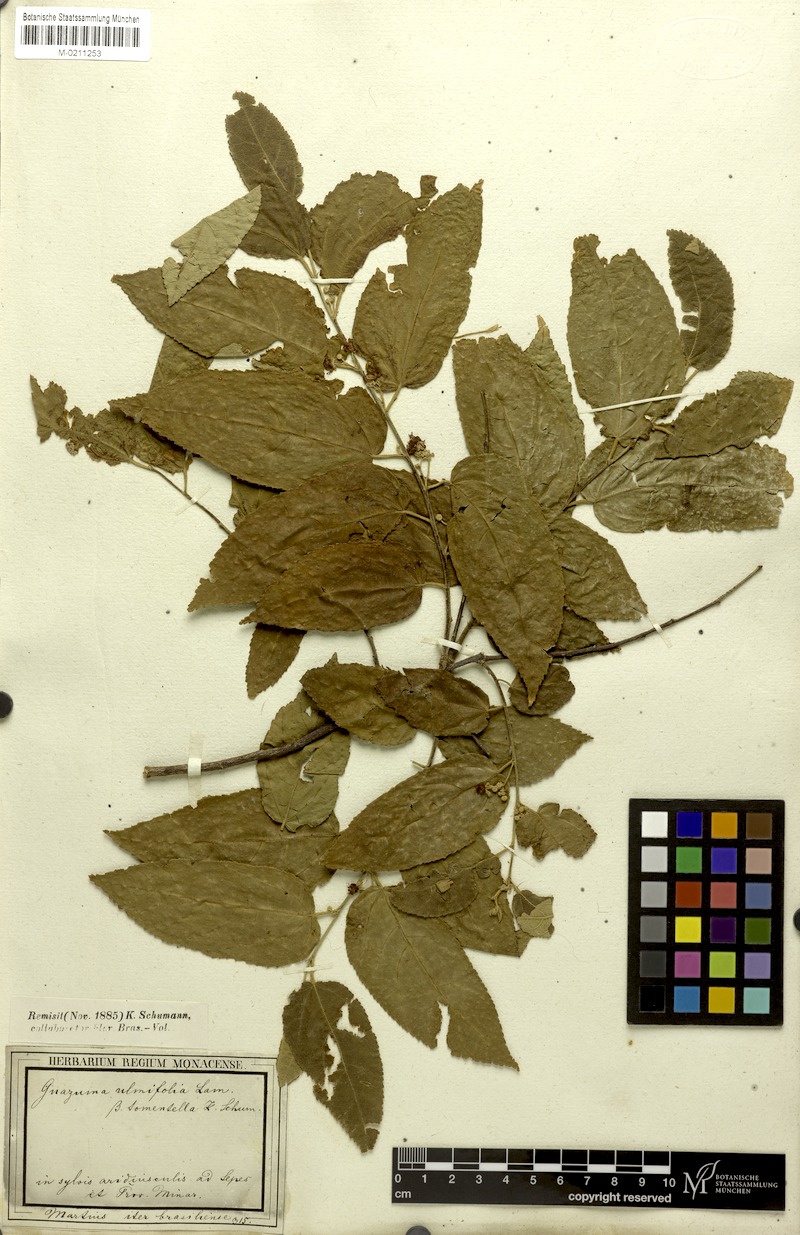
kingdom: Plantae
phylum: Tracheophyta
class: Magnoliopsida
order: Malvales
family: Malvaceae
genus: Guazuma
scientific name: Guazuma ulmifolia
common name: Bastard-cedar
